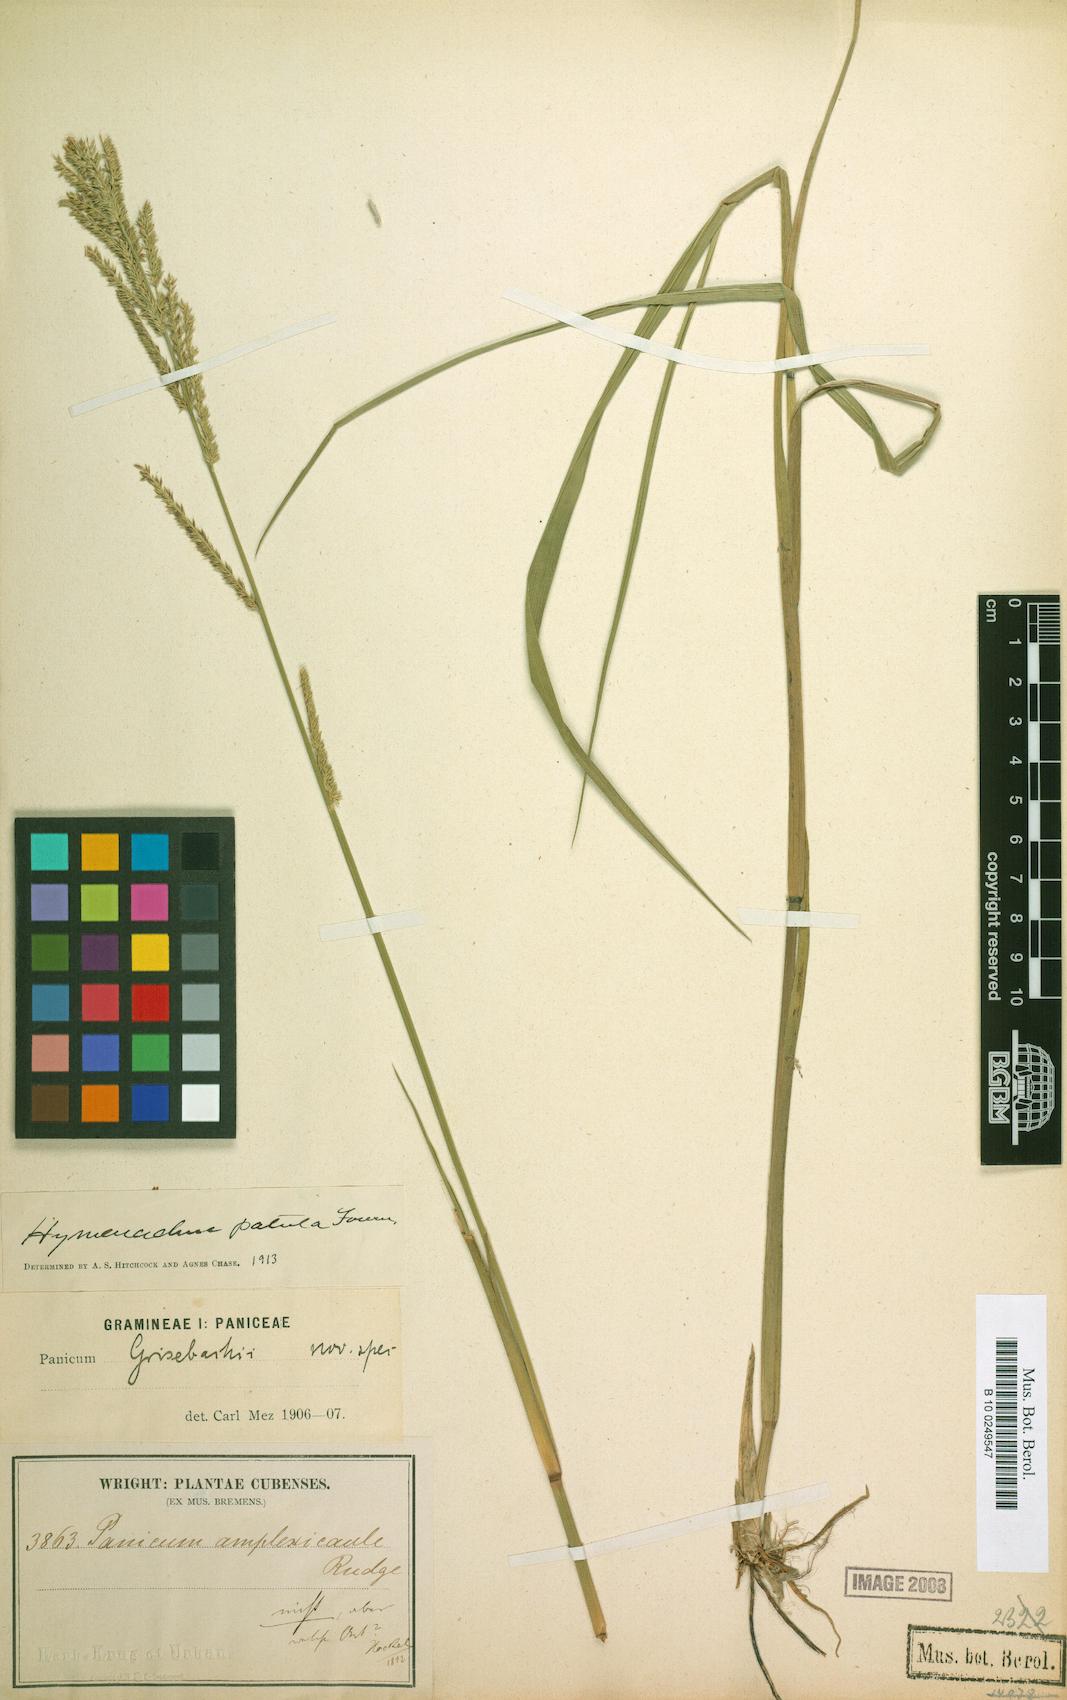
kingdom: Plantae
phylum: Tracheophyta
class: Liliopsida
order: Poales
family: Poaceae
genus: Hymenachne
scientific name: Hymenachne amplexicaulis
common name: Olive hymenachne
